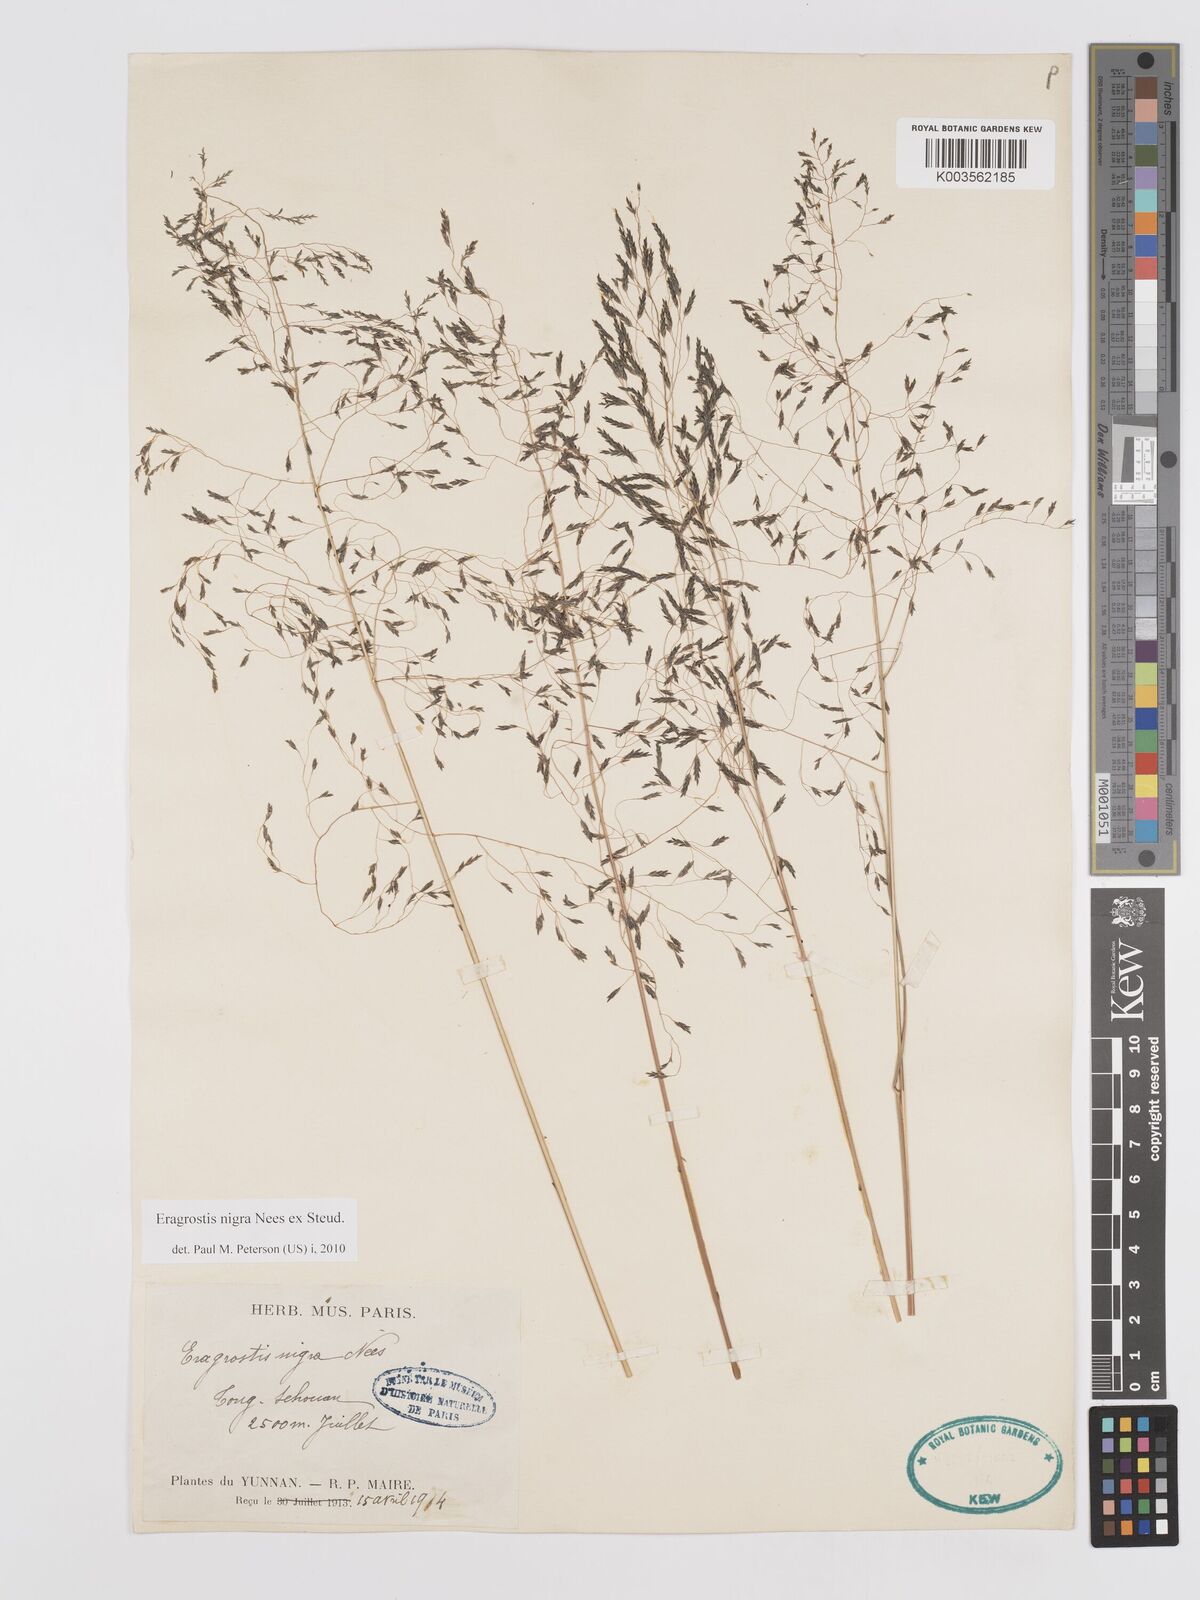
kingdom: Plantae
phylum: Tracheophyta
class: Liliopsida
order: Poales
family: Poaceae
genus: Eragrostis
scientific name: Eragrostis nigra
